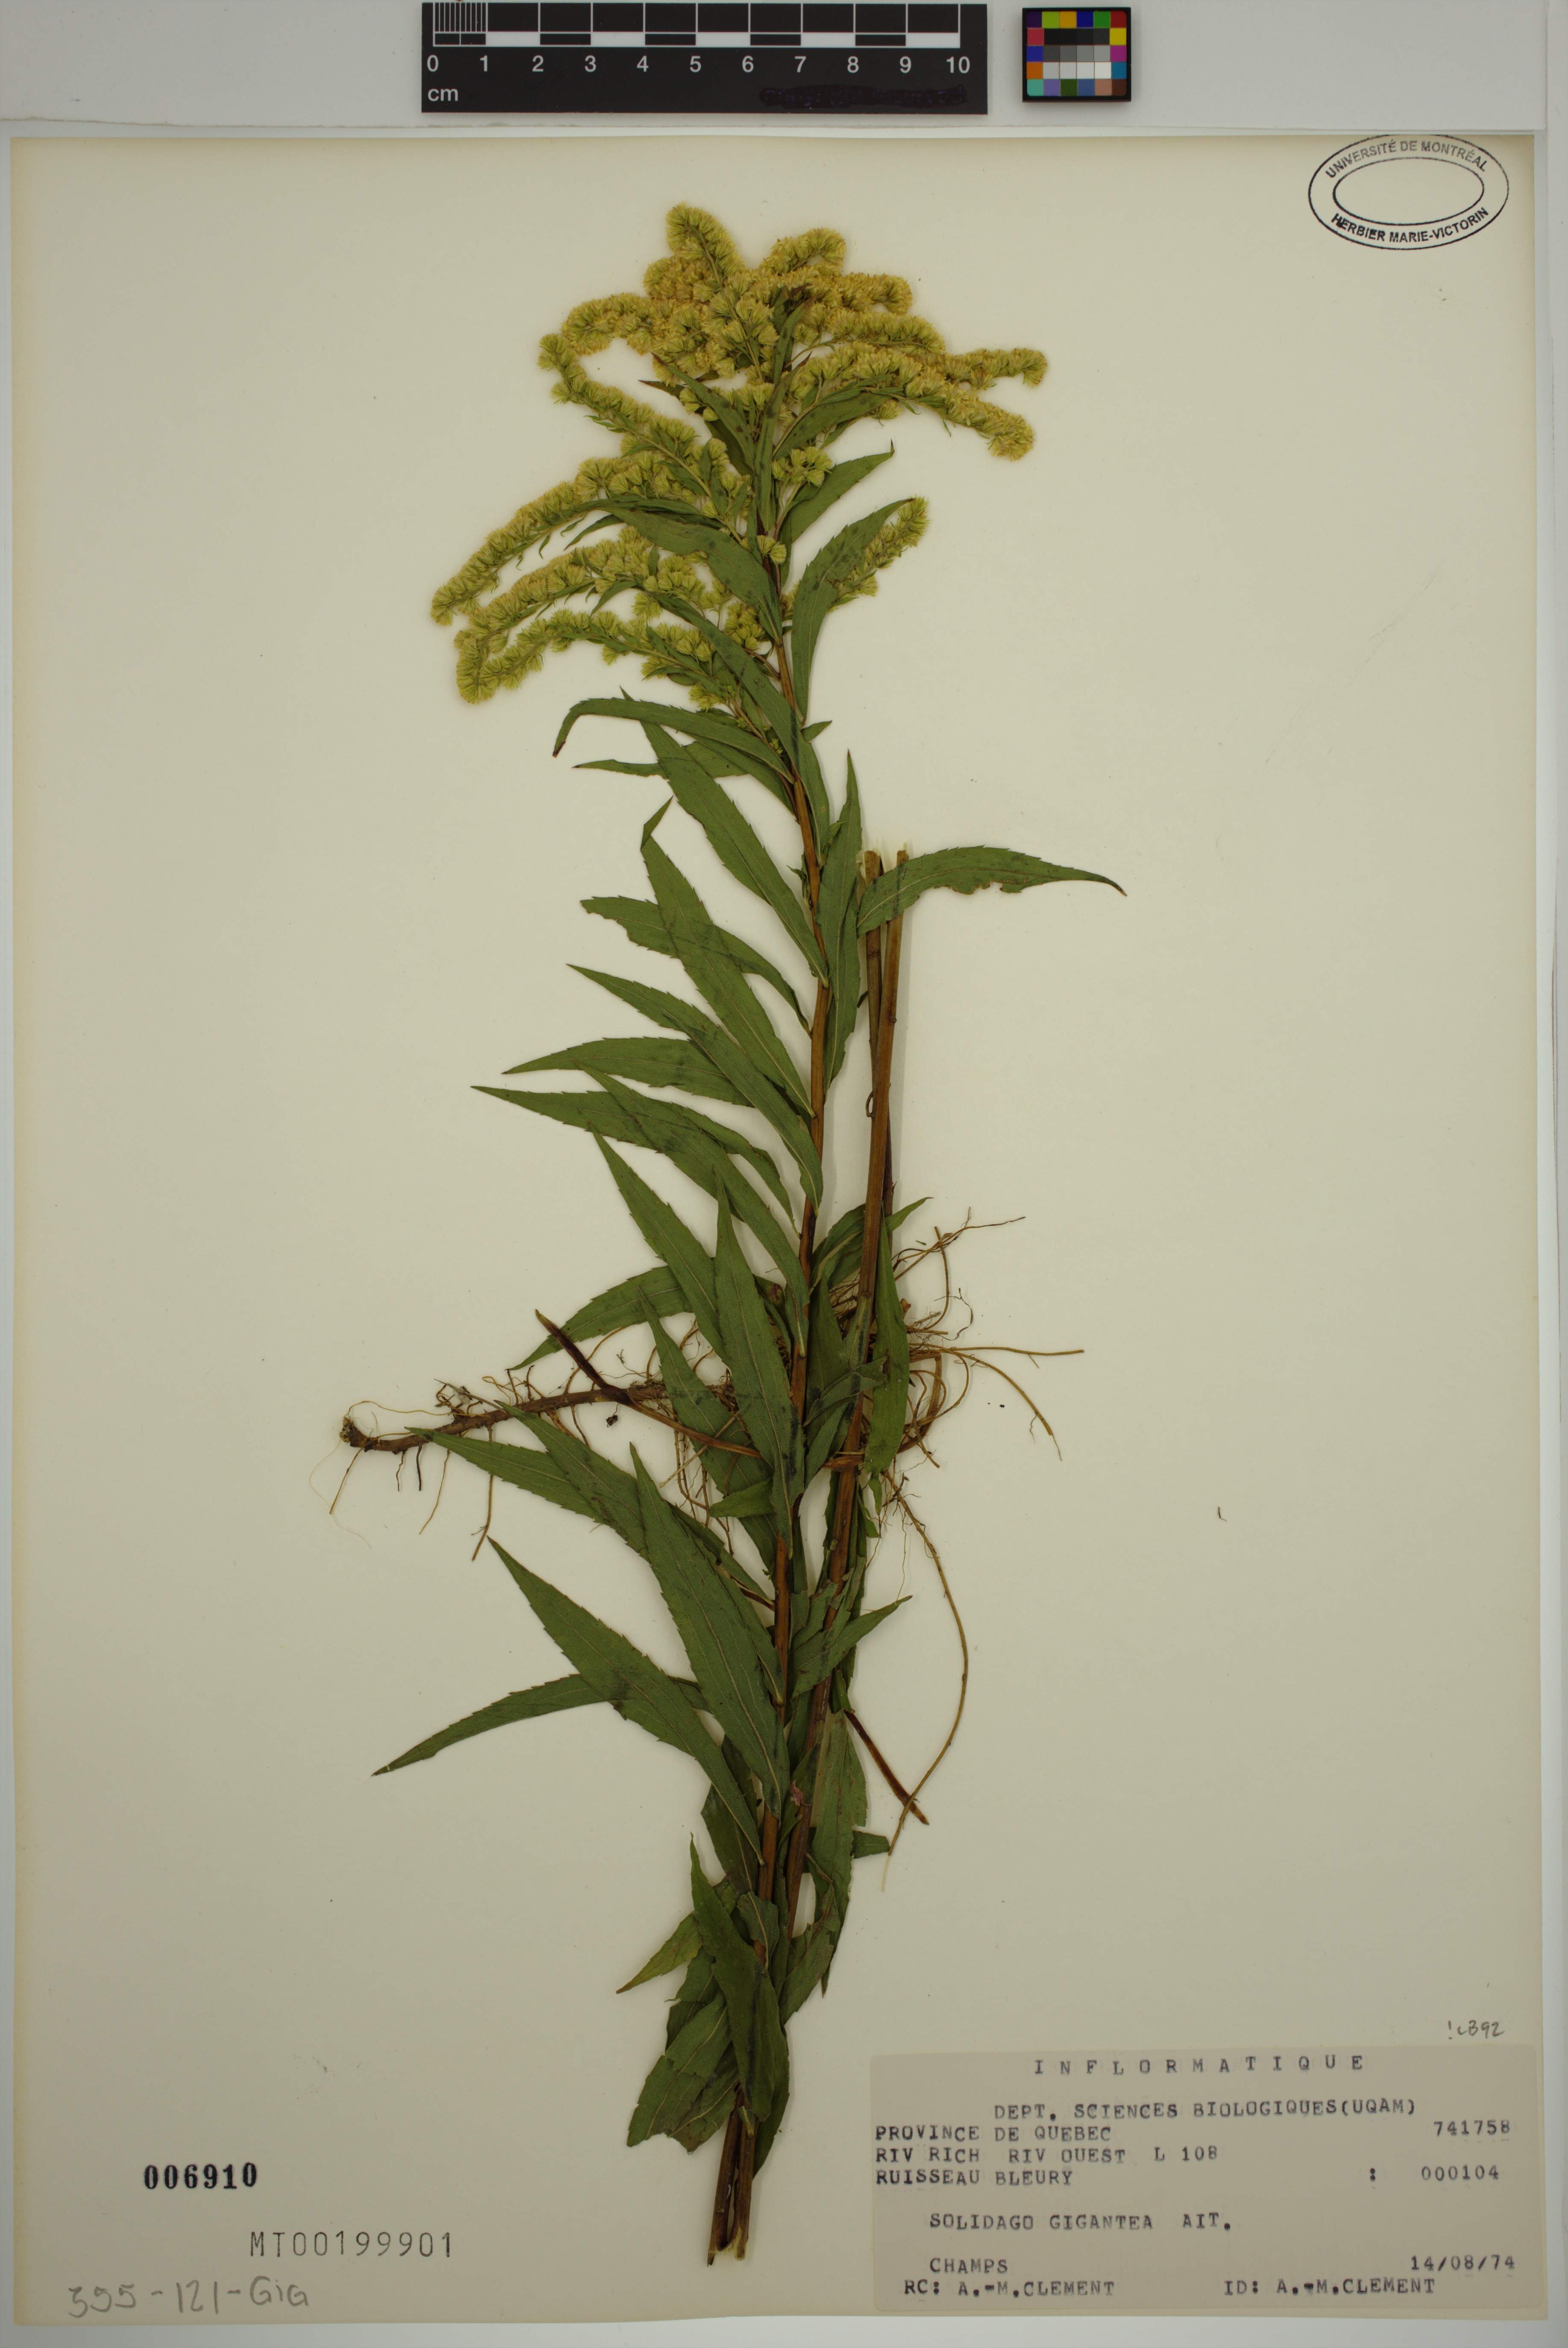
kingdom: Plantae
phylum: Tracheophyta
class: Magnoliopsida
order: Asterales
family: Asteraceae
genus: Solidago
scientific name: Solidago gigantea
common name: Giant goldenrod
